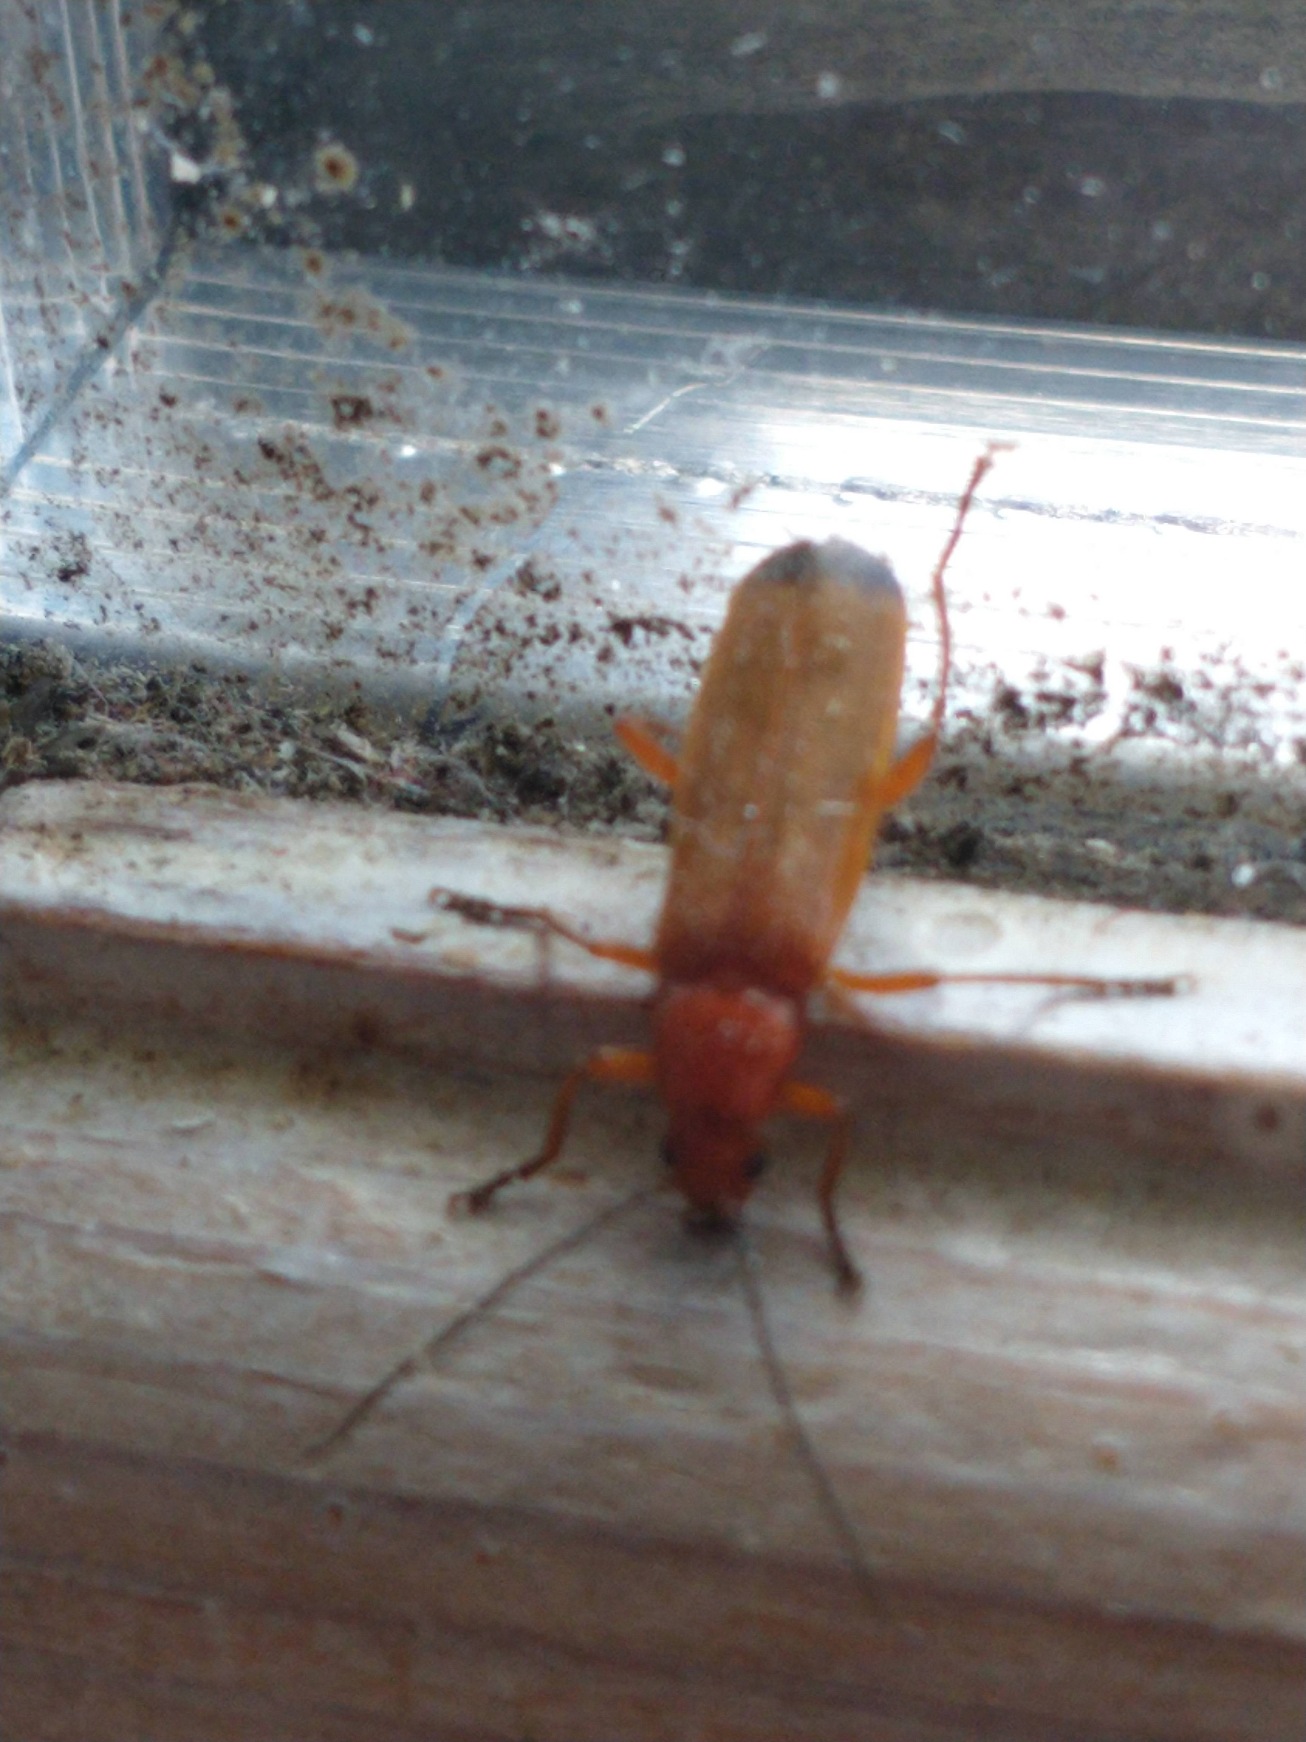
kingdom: Animalia
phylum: Arthropoda
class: Insecta
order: Coleoptera
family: Cantharidae
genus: Rhagonycha
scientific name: Rhagonycha fulva
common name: Præstebille
